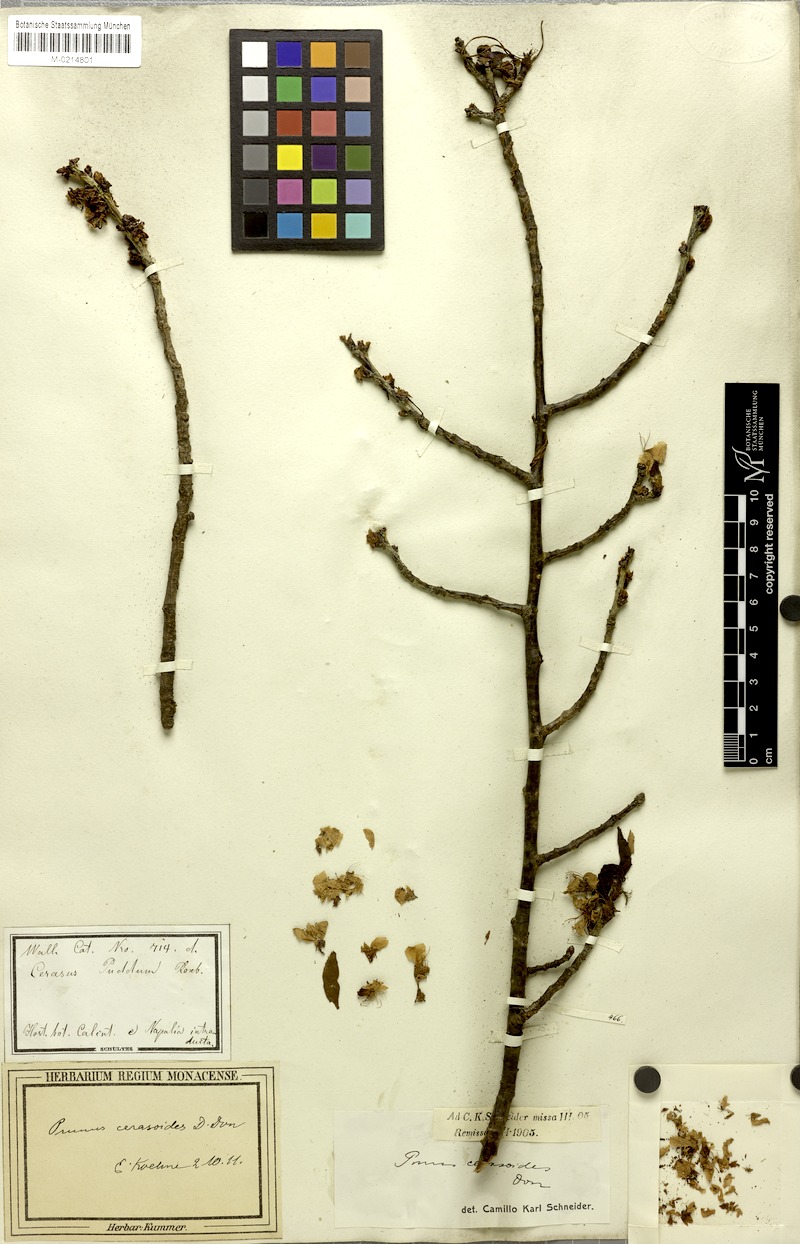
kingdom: Plantae
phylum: Tracheophyta
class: Magnoliopsida
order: Rosales
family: Rosaceae
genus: Prunus
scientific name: Prunus cerasoides
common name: Wild himalayan cherry
